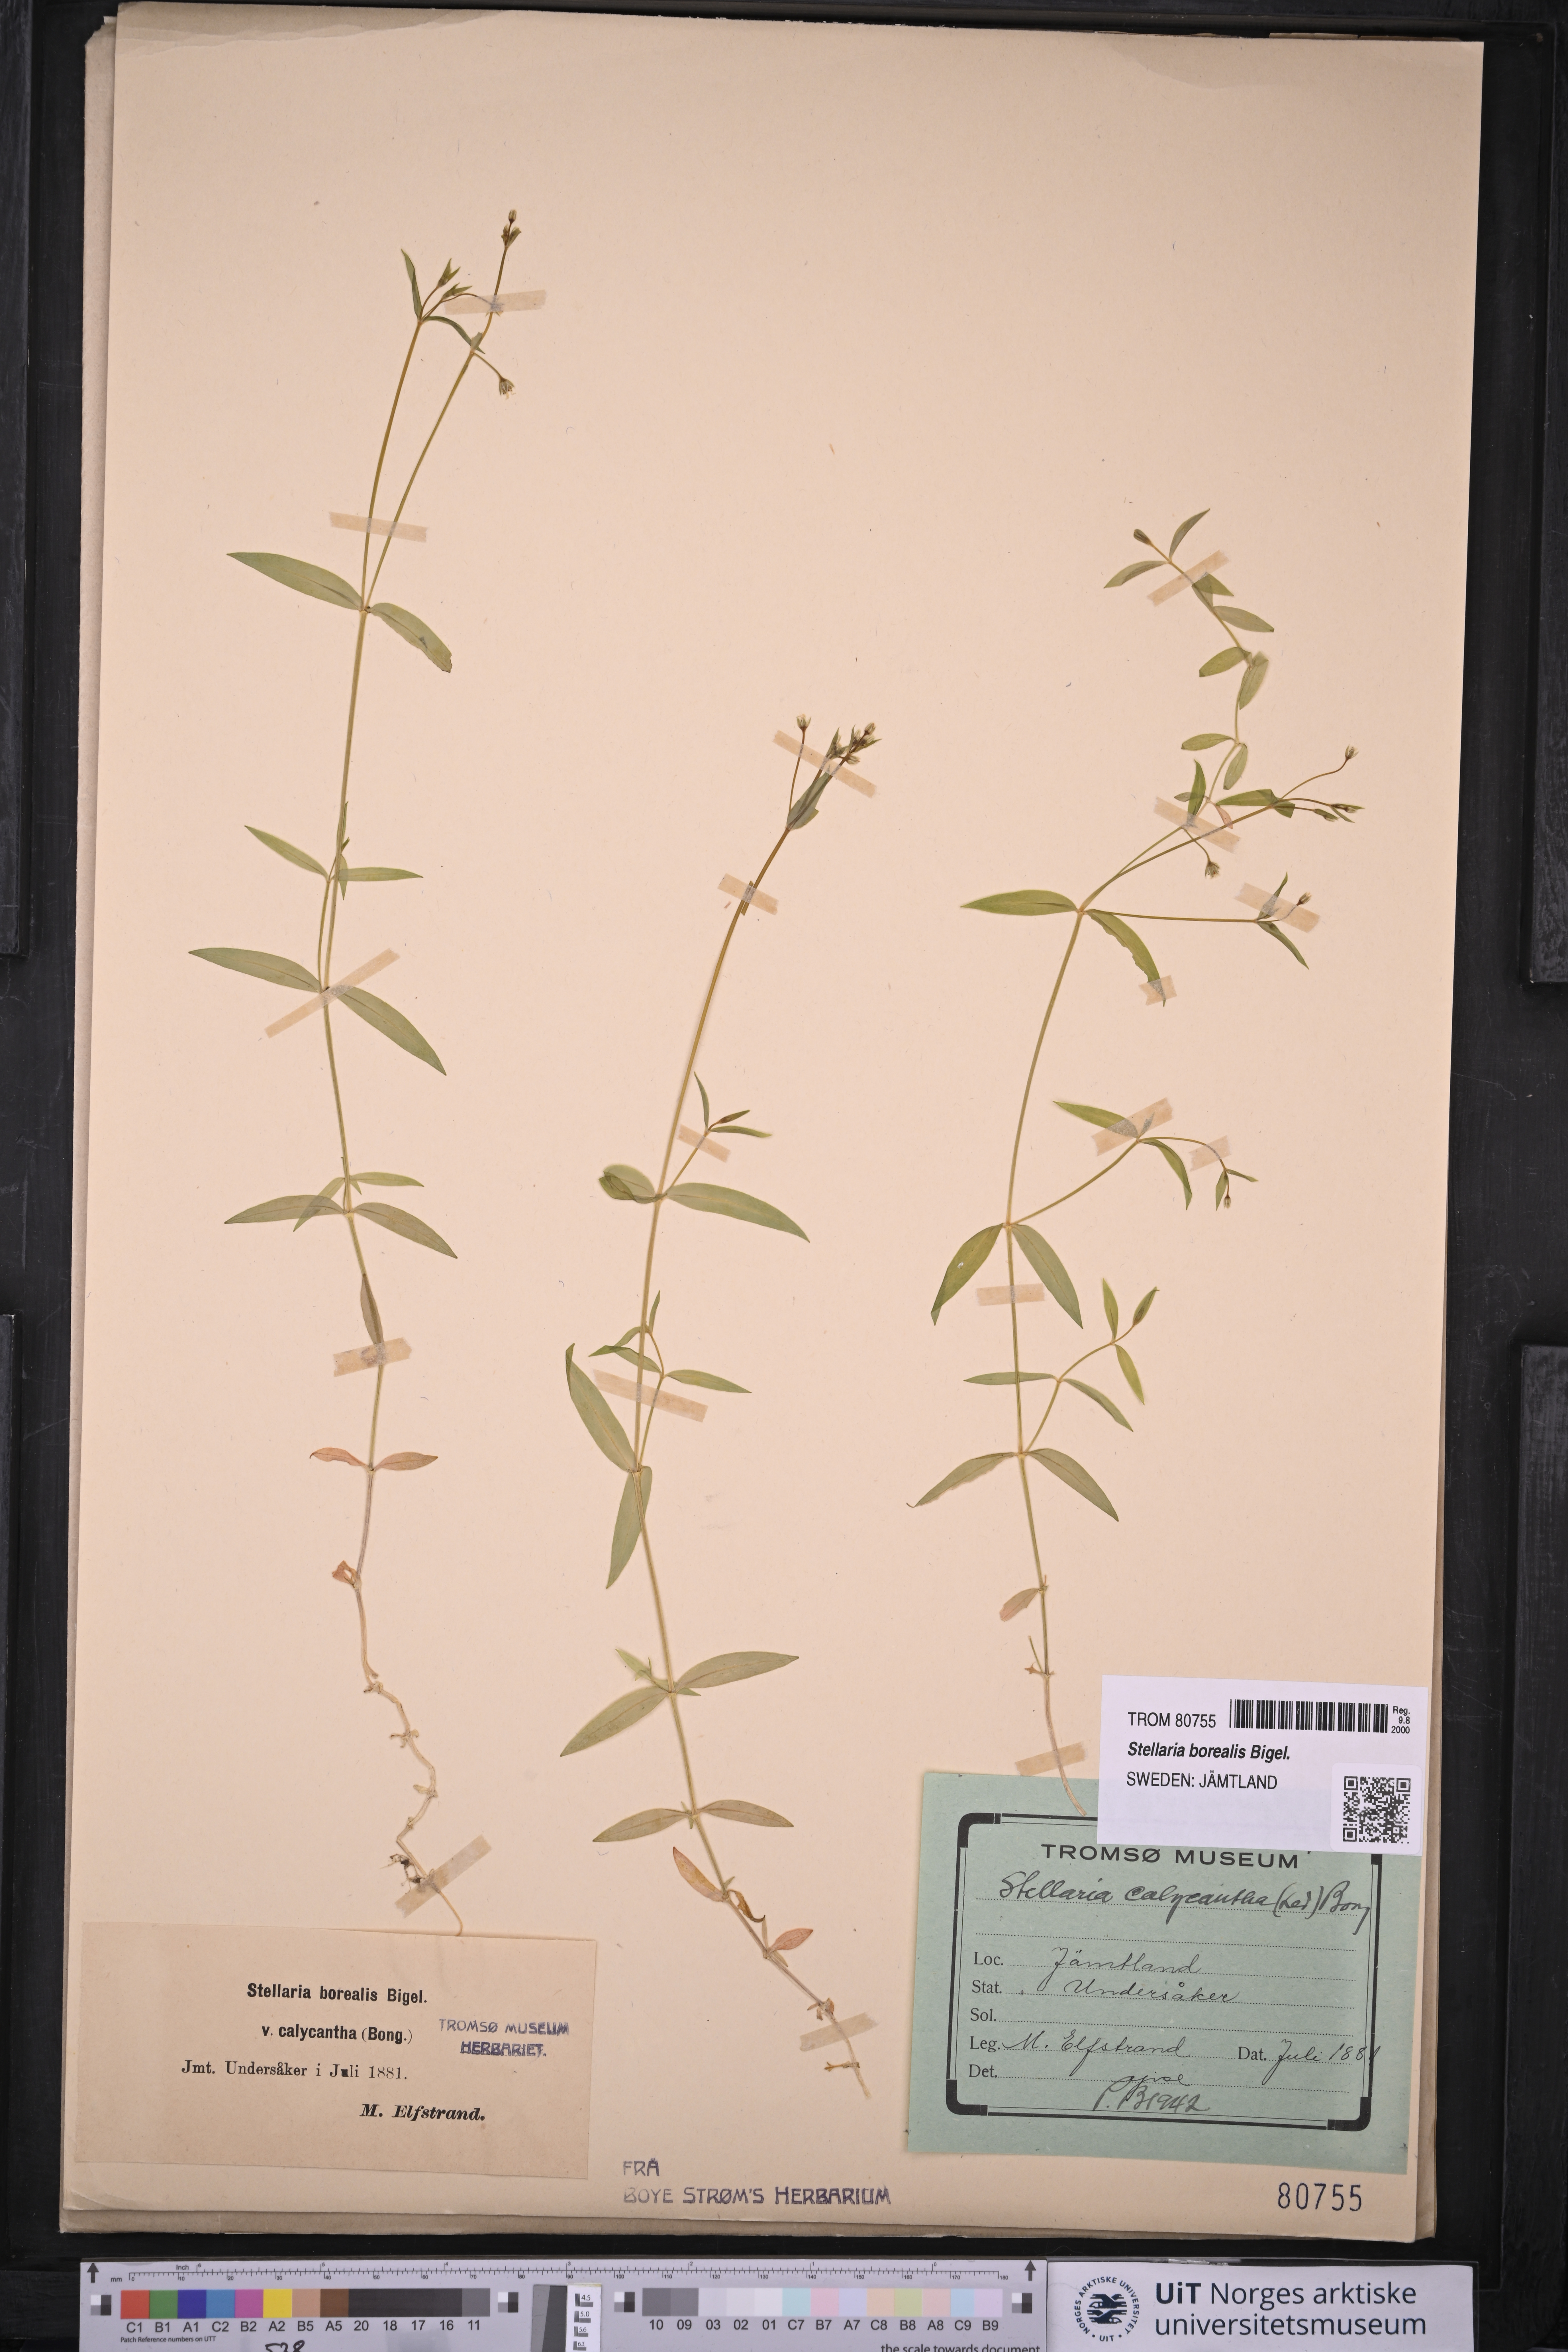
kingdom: Plantae
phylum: Tracheophyta
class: Magnoliopsida
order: Caryophyllales
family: Caryophyllaceae
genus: Stellaria
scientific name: Stellaria borealis
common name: Boreal starwort
